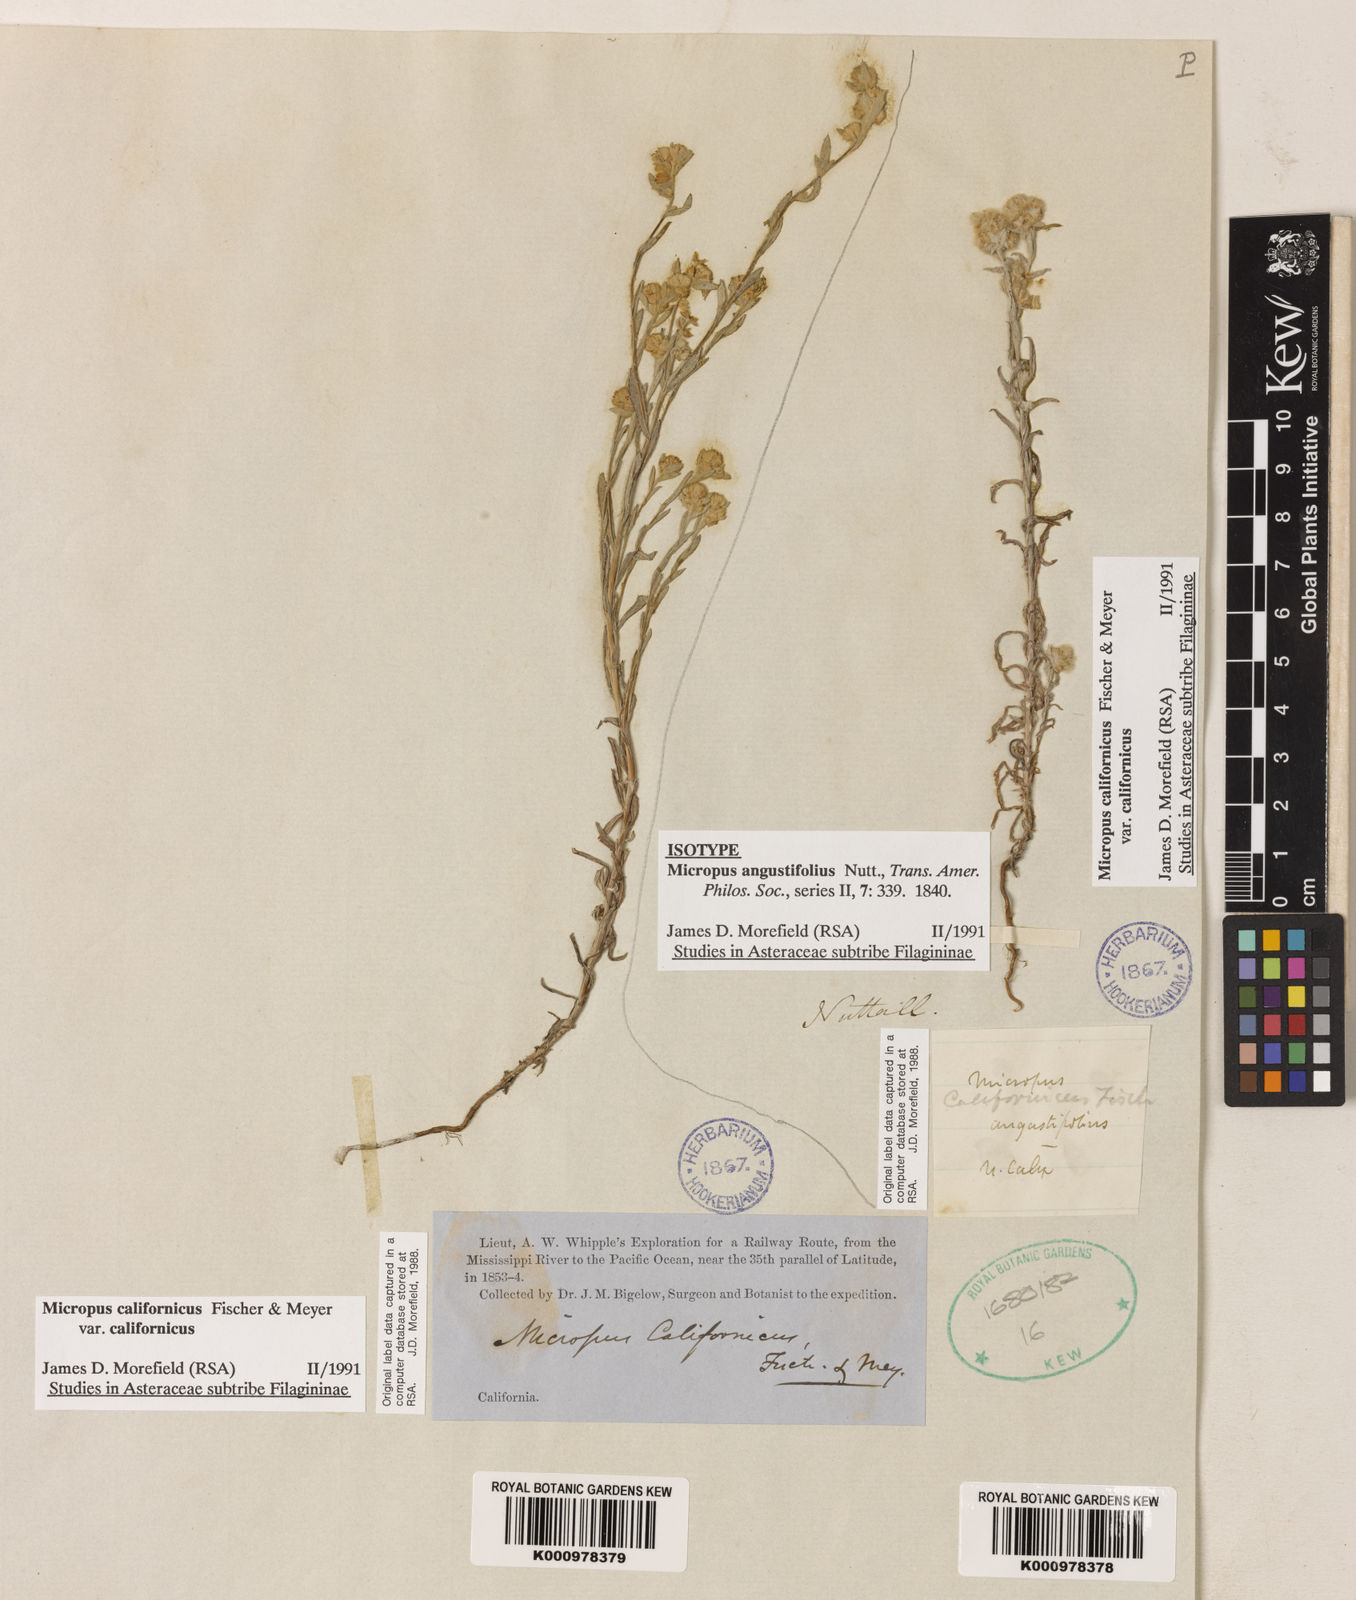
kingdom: Plantae
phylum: Tracheophyta
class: Magnoliopsida
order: Asterales
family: Asteraceae
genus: Bombycilaena
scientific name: Bombycilaena californica
